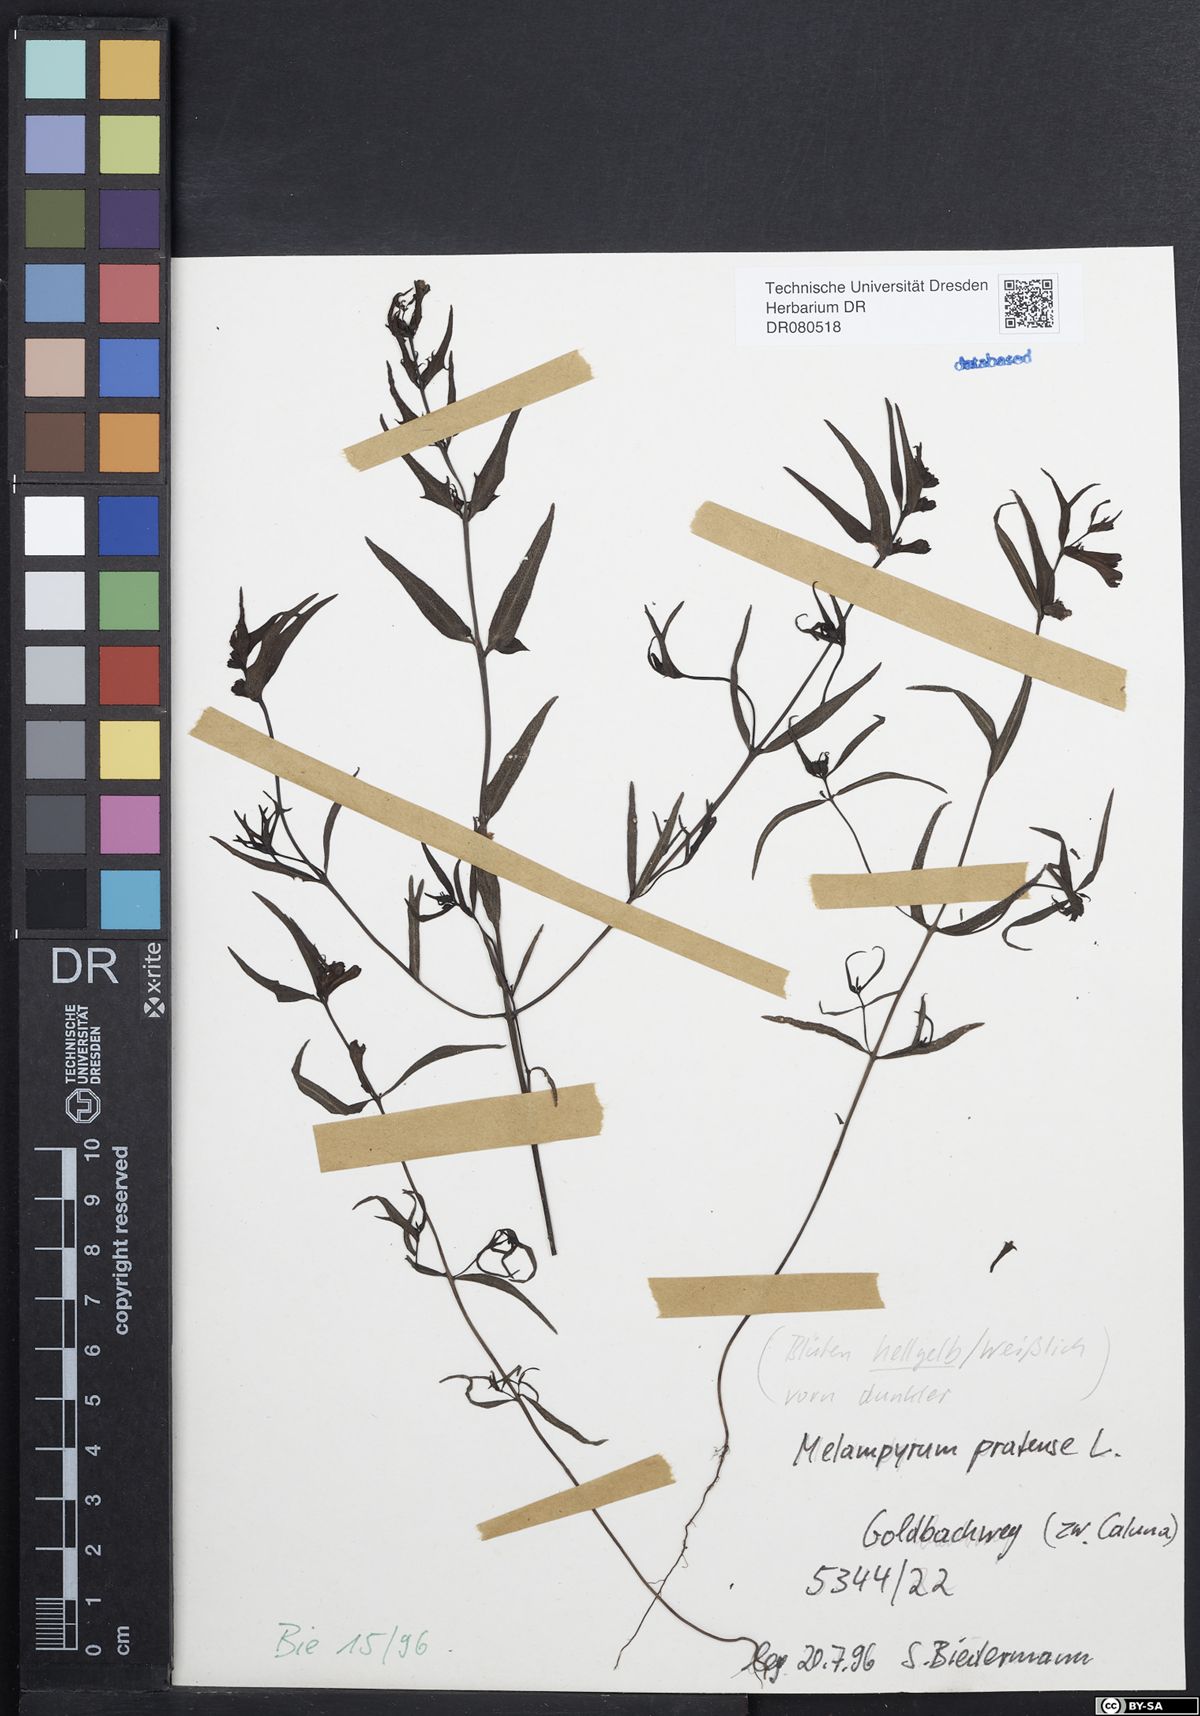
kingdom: Plantae
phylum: Tracheophyta
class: Magnoliopsida
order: Lamiales
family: Orobanchaceae
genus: Melampyrum
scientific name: Melampyrum pratense
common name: Common cow-wheat
